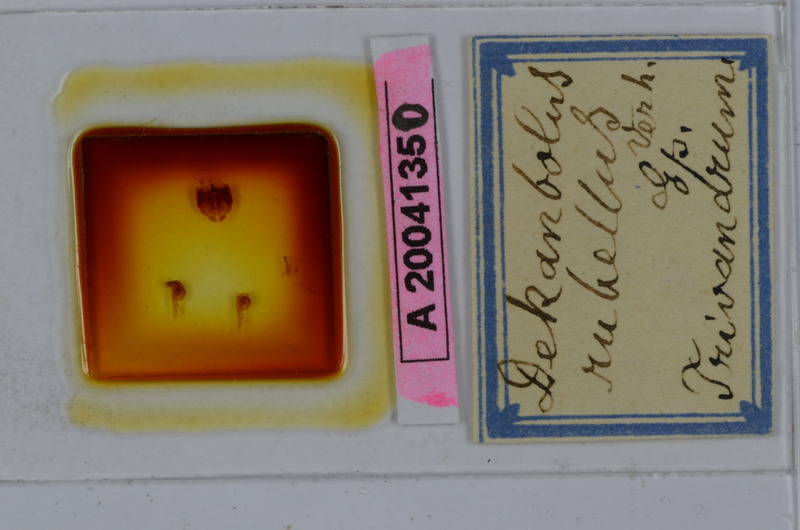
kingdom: Animalia
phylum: Arthropoda
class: Diplopoda
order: Spirobolida
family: Pachybolidae
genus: Stenobolus
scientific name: Stenobolus insularis
